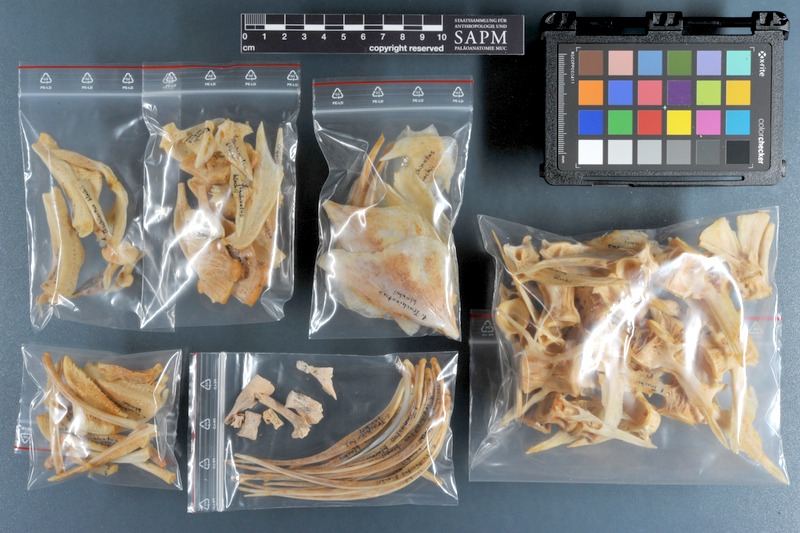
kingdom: Animalia
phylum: Chordata
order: Perciformes
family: Carangidae
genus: Trachinotus
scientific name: Trachinotus blochii
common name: Snubnose pompano
